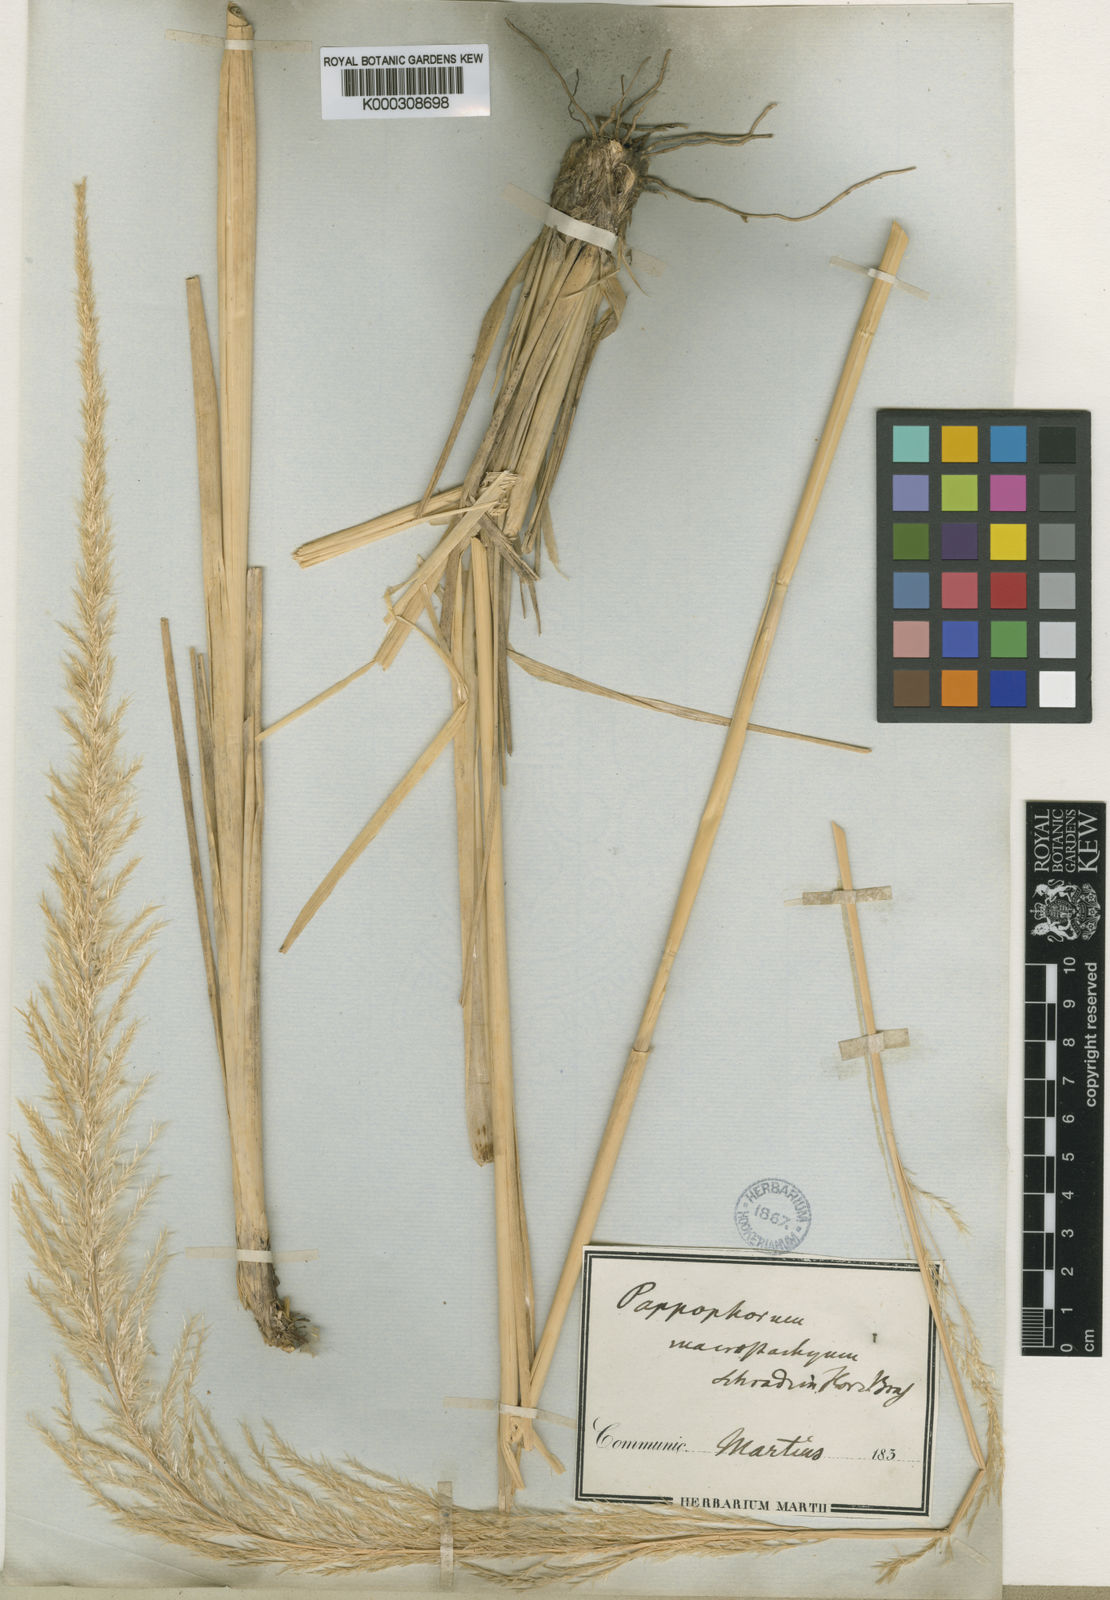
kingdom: Plantae
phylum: Tracheophyta
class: Liliopsida
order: Poales
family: Poaceae
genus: Pappophorum
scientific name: Pappophorum pappiferum
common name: Crabgrass
